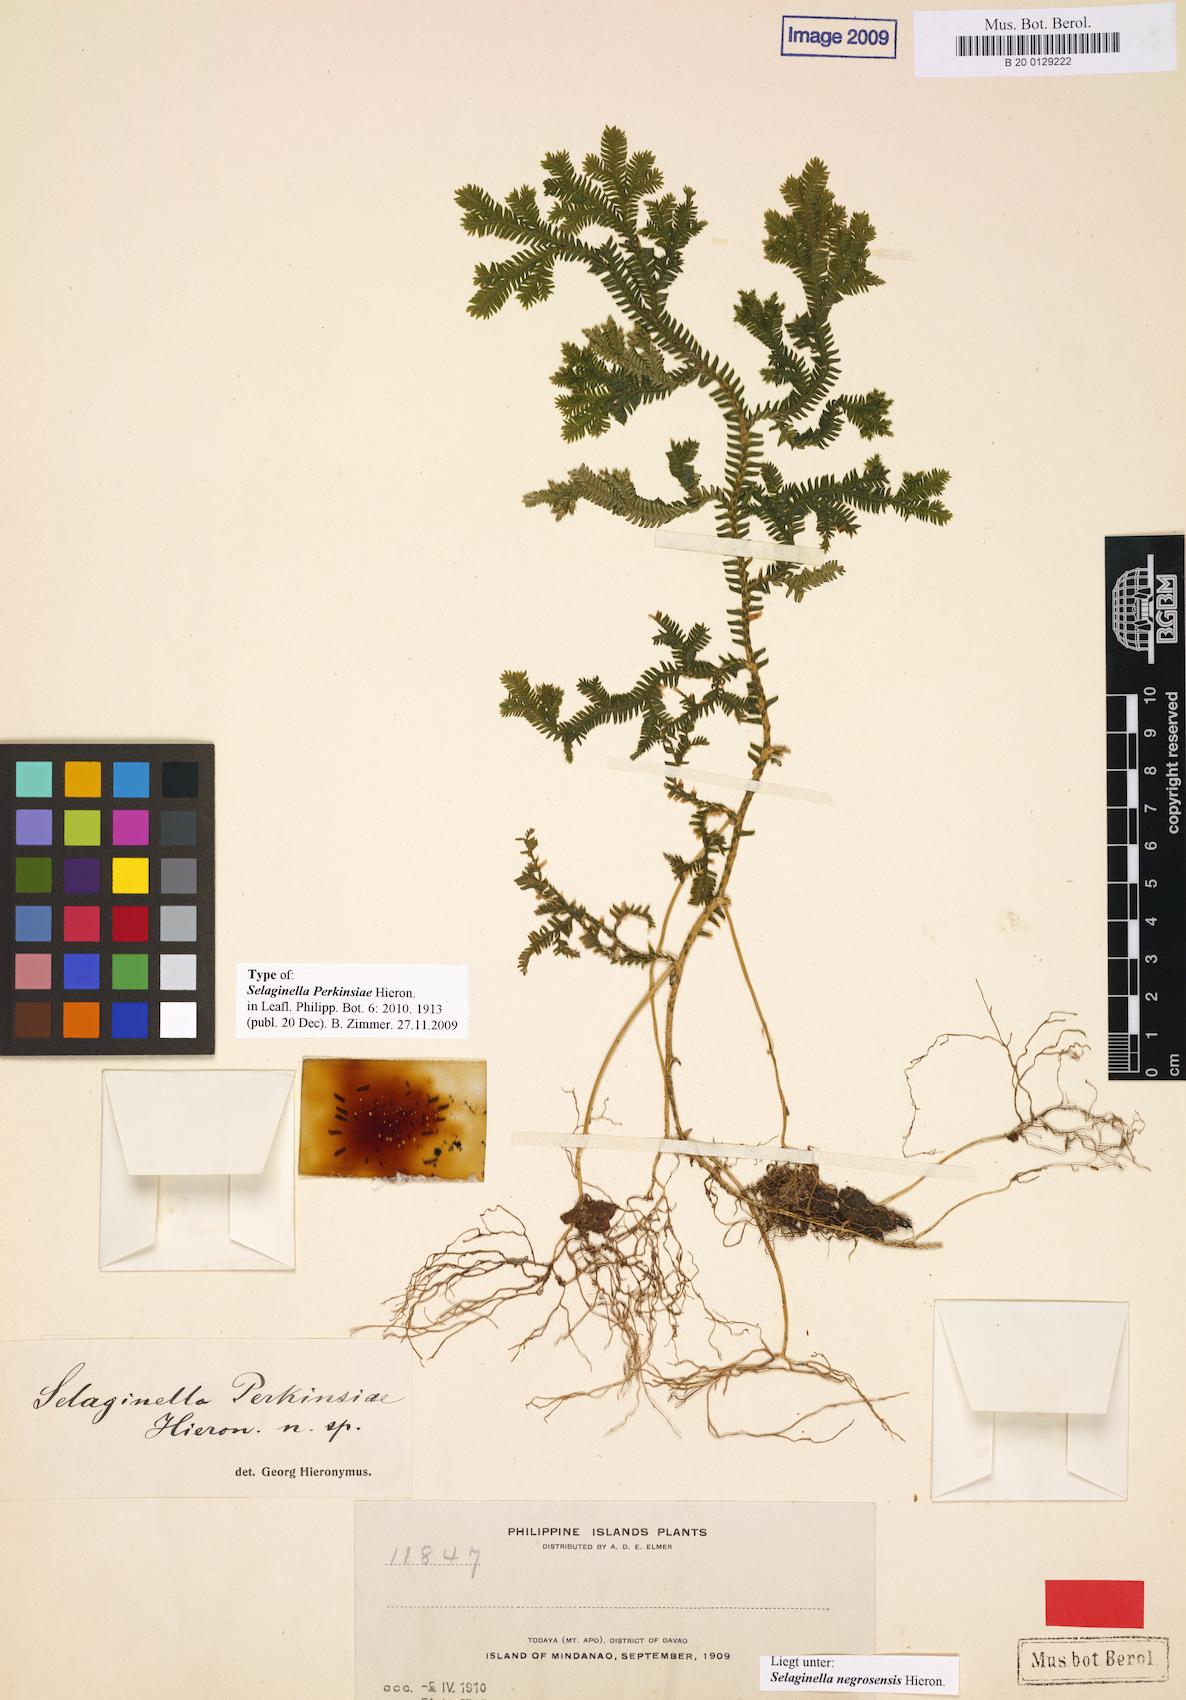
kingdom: Plantae
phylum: Tracheophyta
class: Lycopodiopsida
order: Selaginellales
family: Selaginellaceae
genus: Selaginella
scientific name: Selaginella negrosensis
